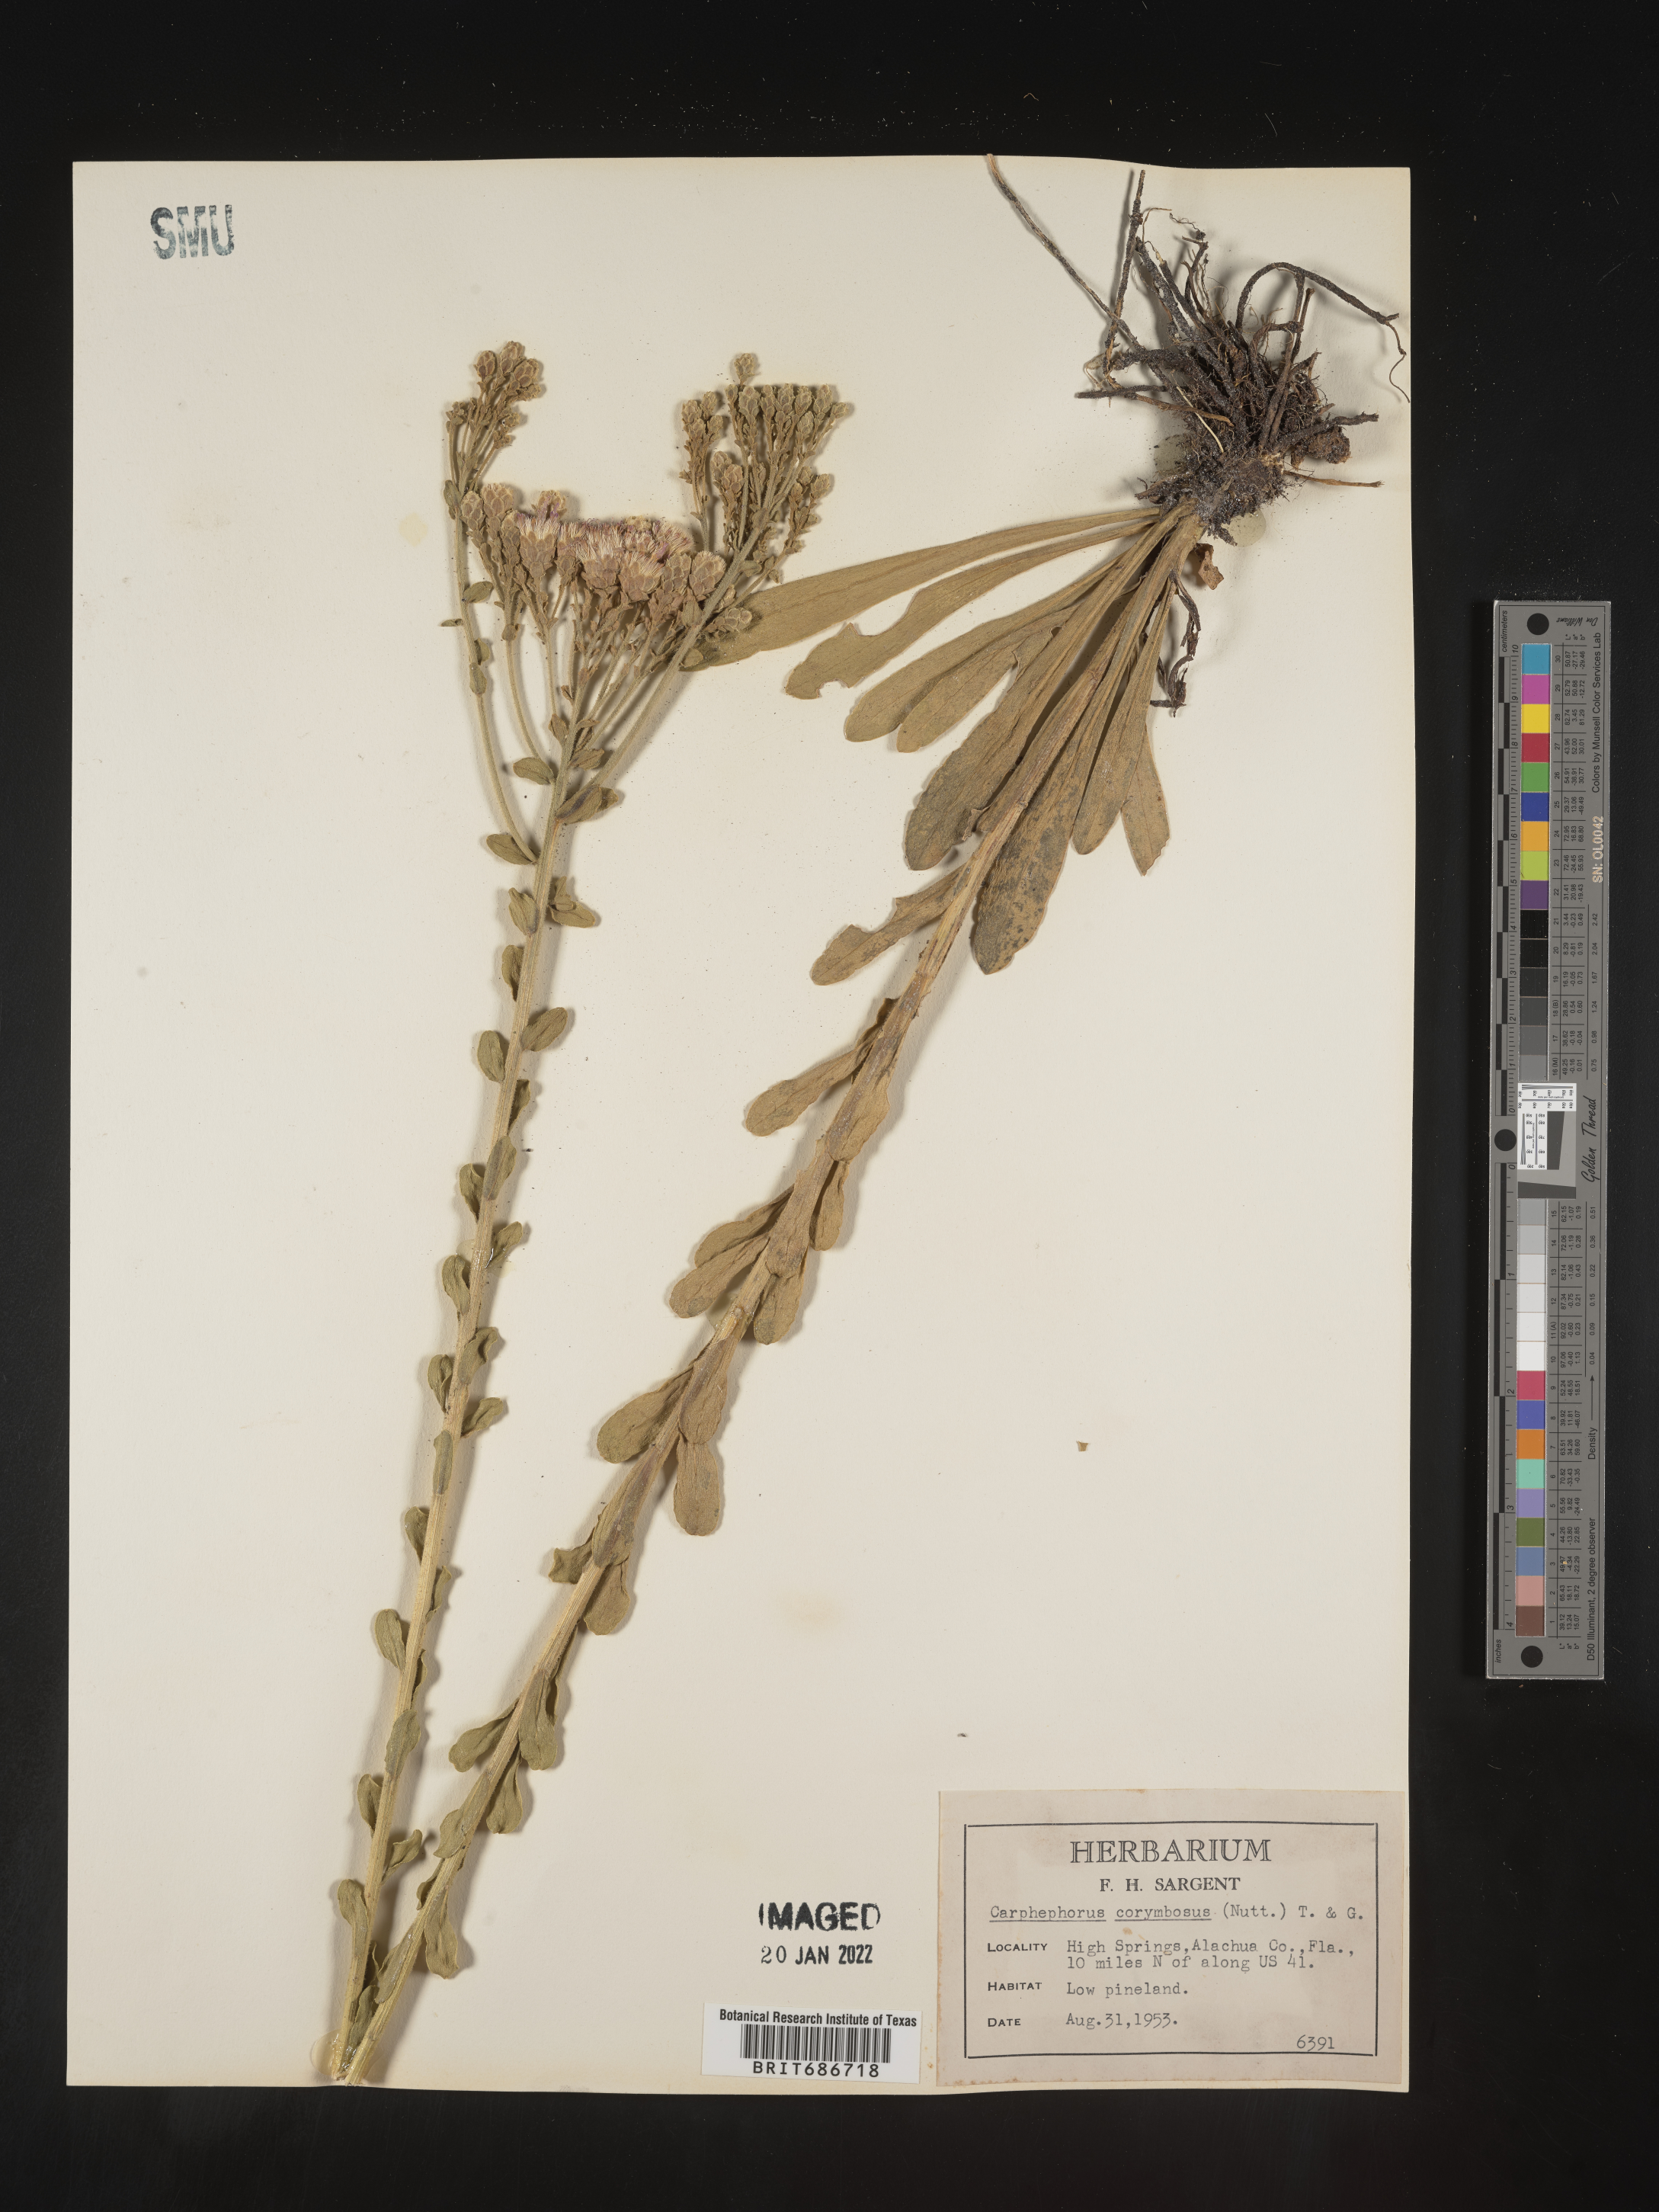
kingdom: Plantae
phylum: Tracheophyta
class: Magnoliopsida
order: Asterales
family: Asteraceae
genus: Carphephorus
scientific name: Carphephorus corymbosus
